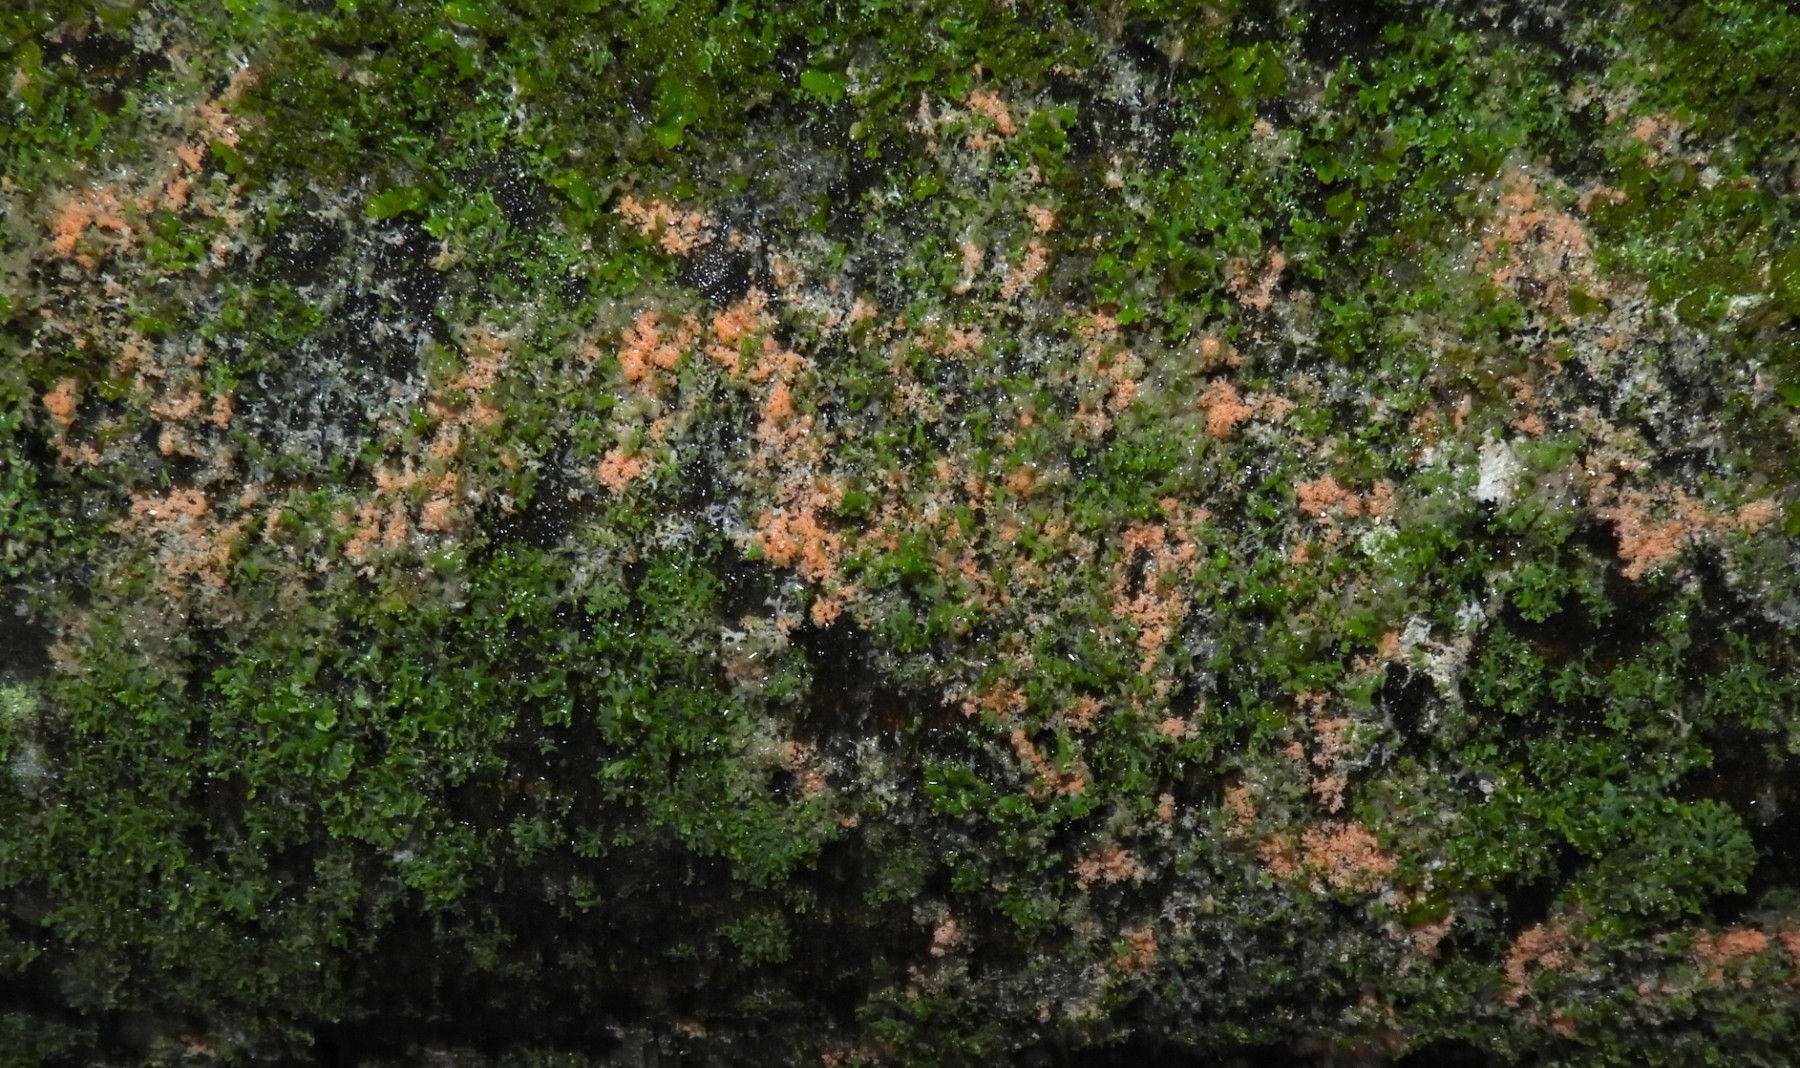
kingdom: Fungi
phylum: Basidiomycota
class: Agaricomycetes
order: Corticiales
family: Corticiaceae
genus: Erythricium
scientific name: Erythricium aurantiacum
